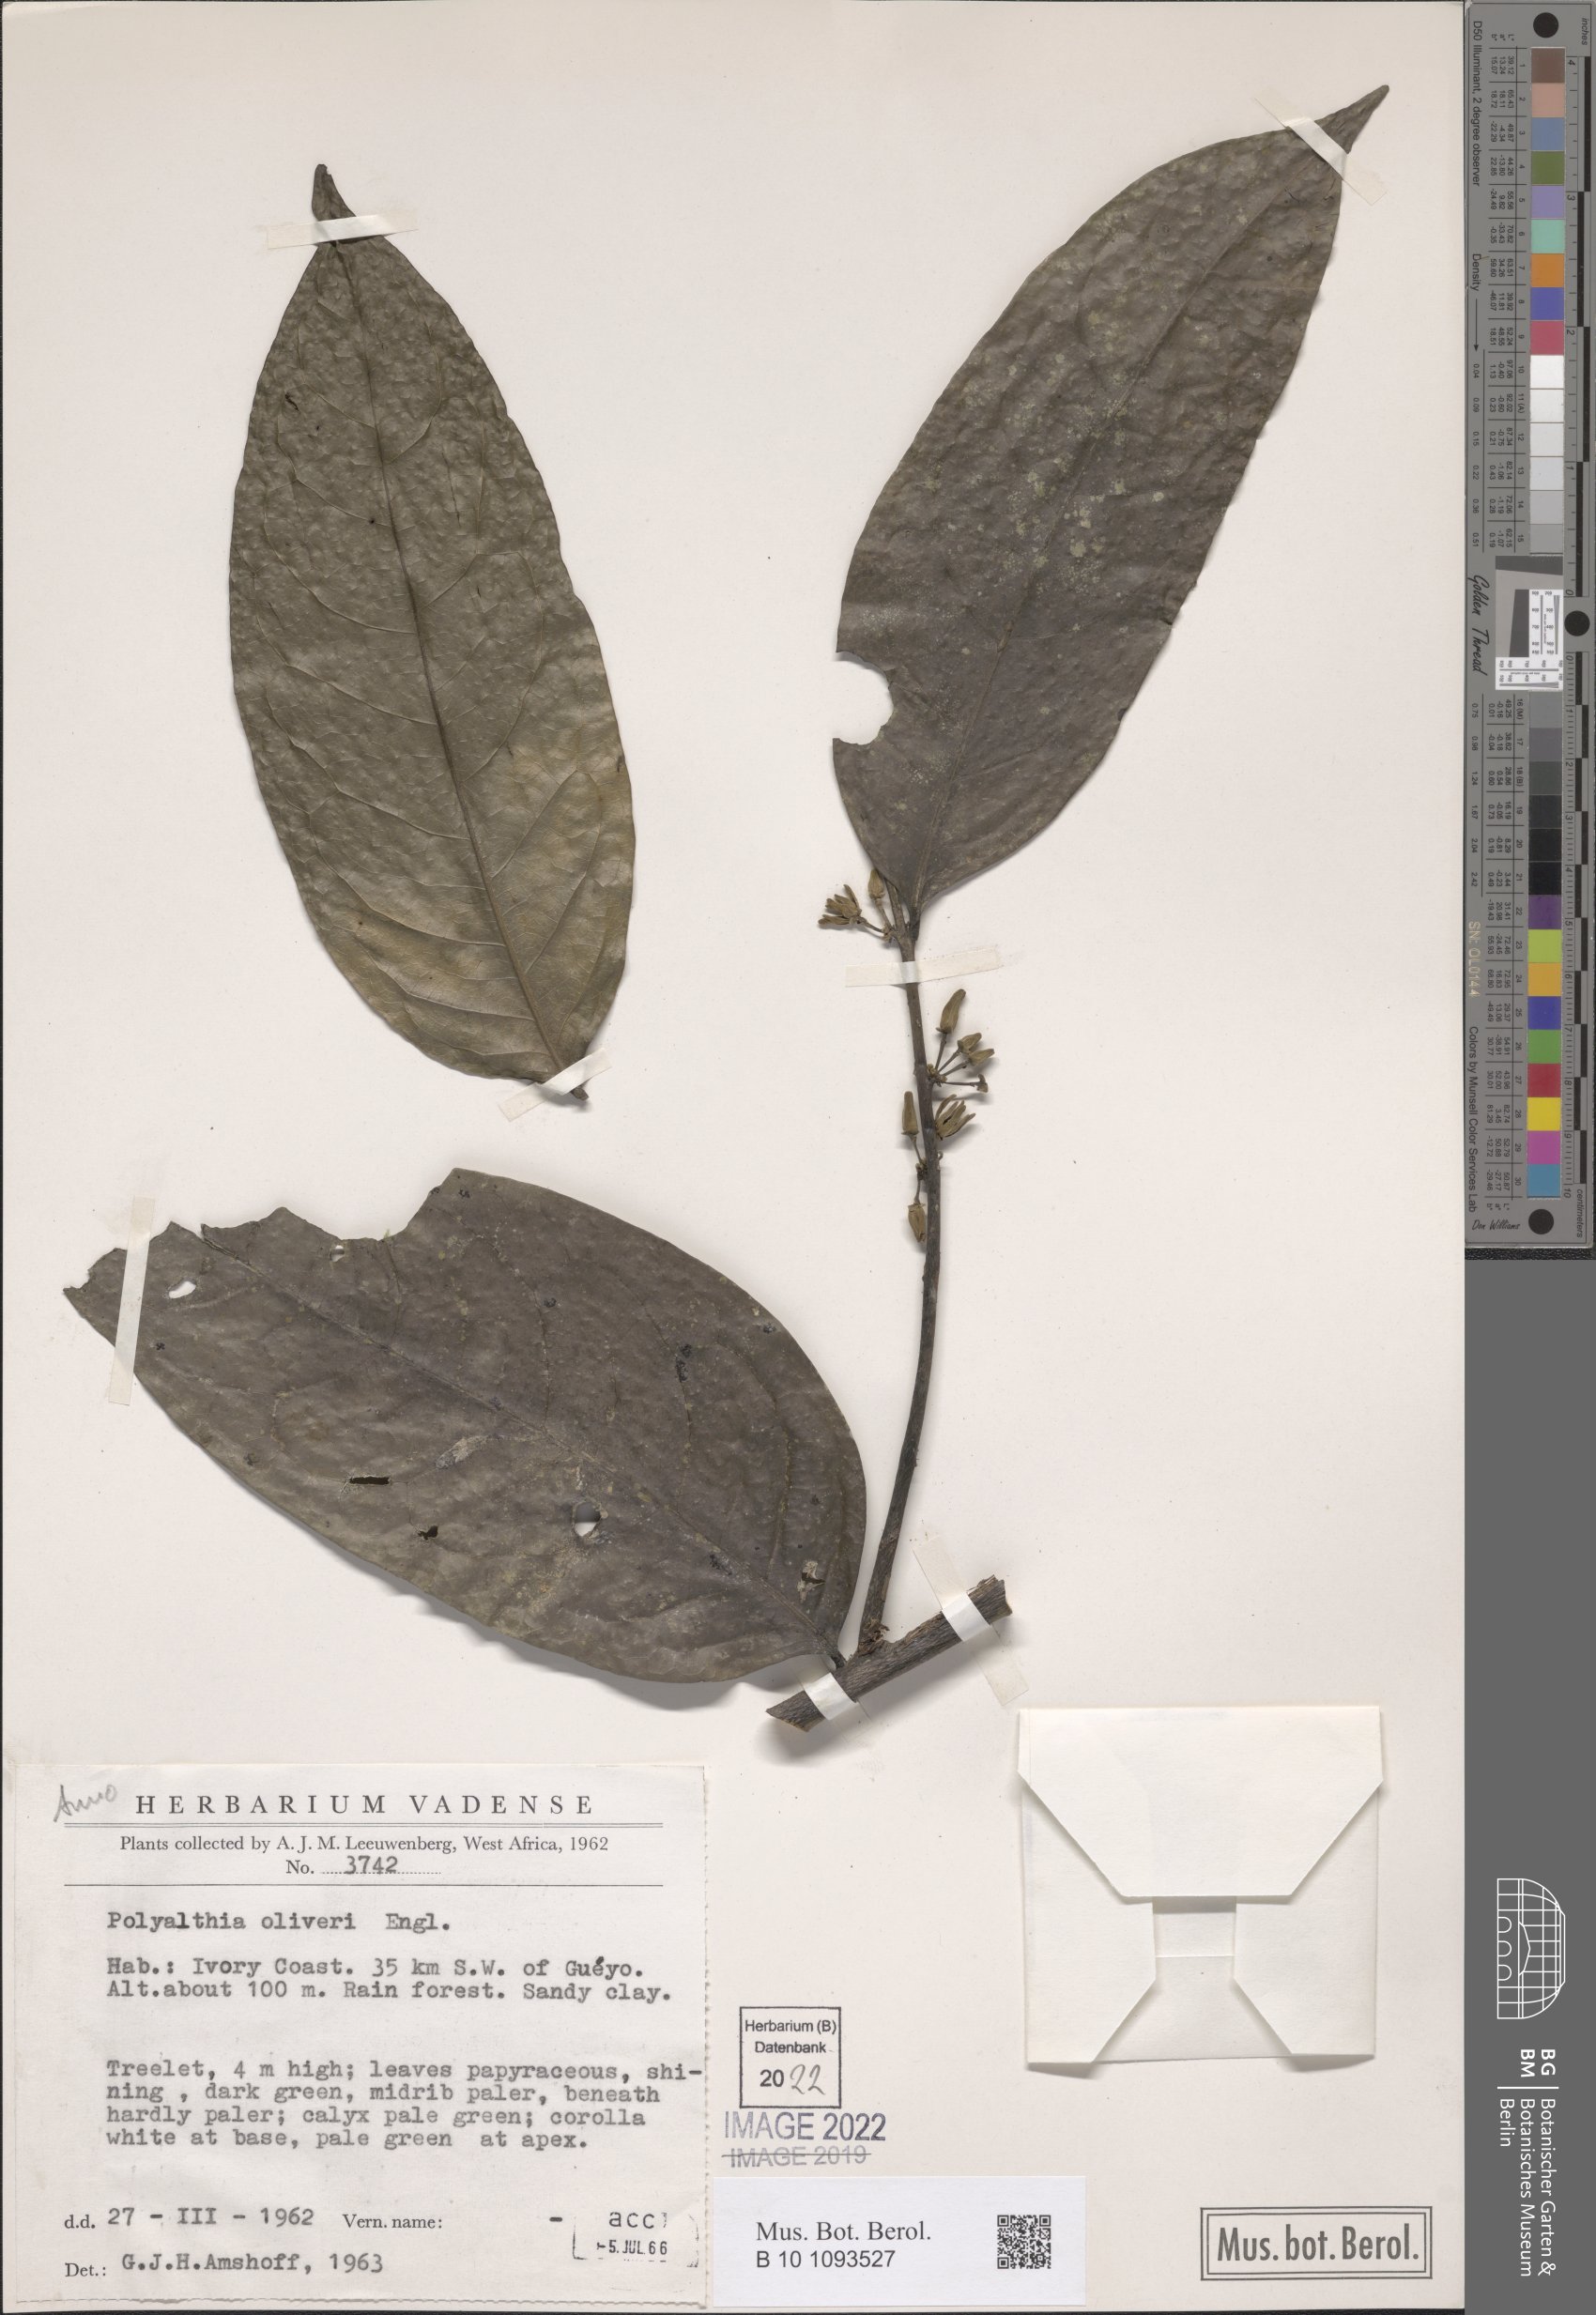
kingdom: Plantae
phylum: Tracheophyta
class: Magnoliopsida
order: Magnoliales
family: Annonaceae
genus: Greenwayodendron
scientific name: Greenwayodendron oliveri
